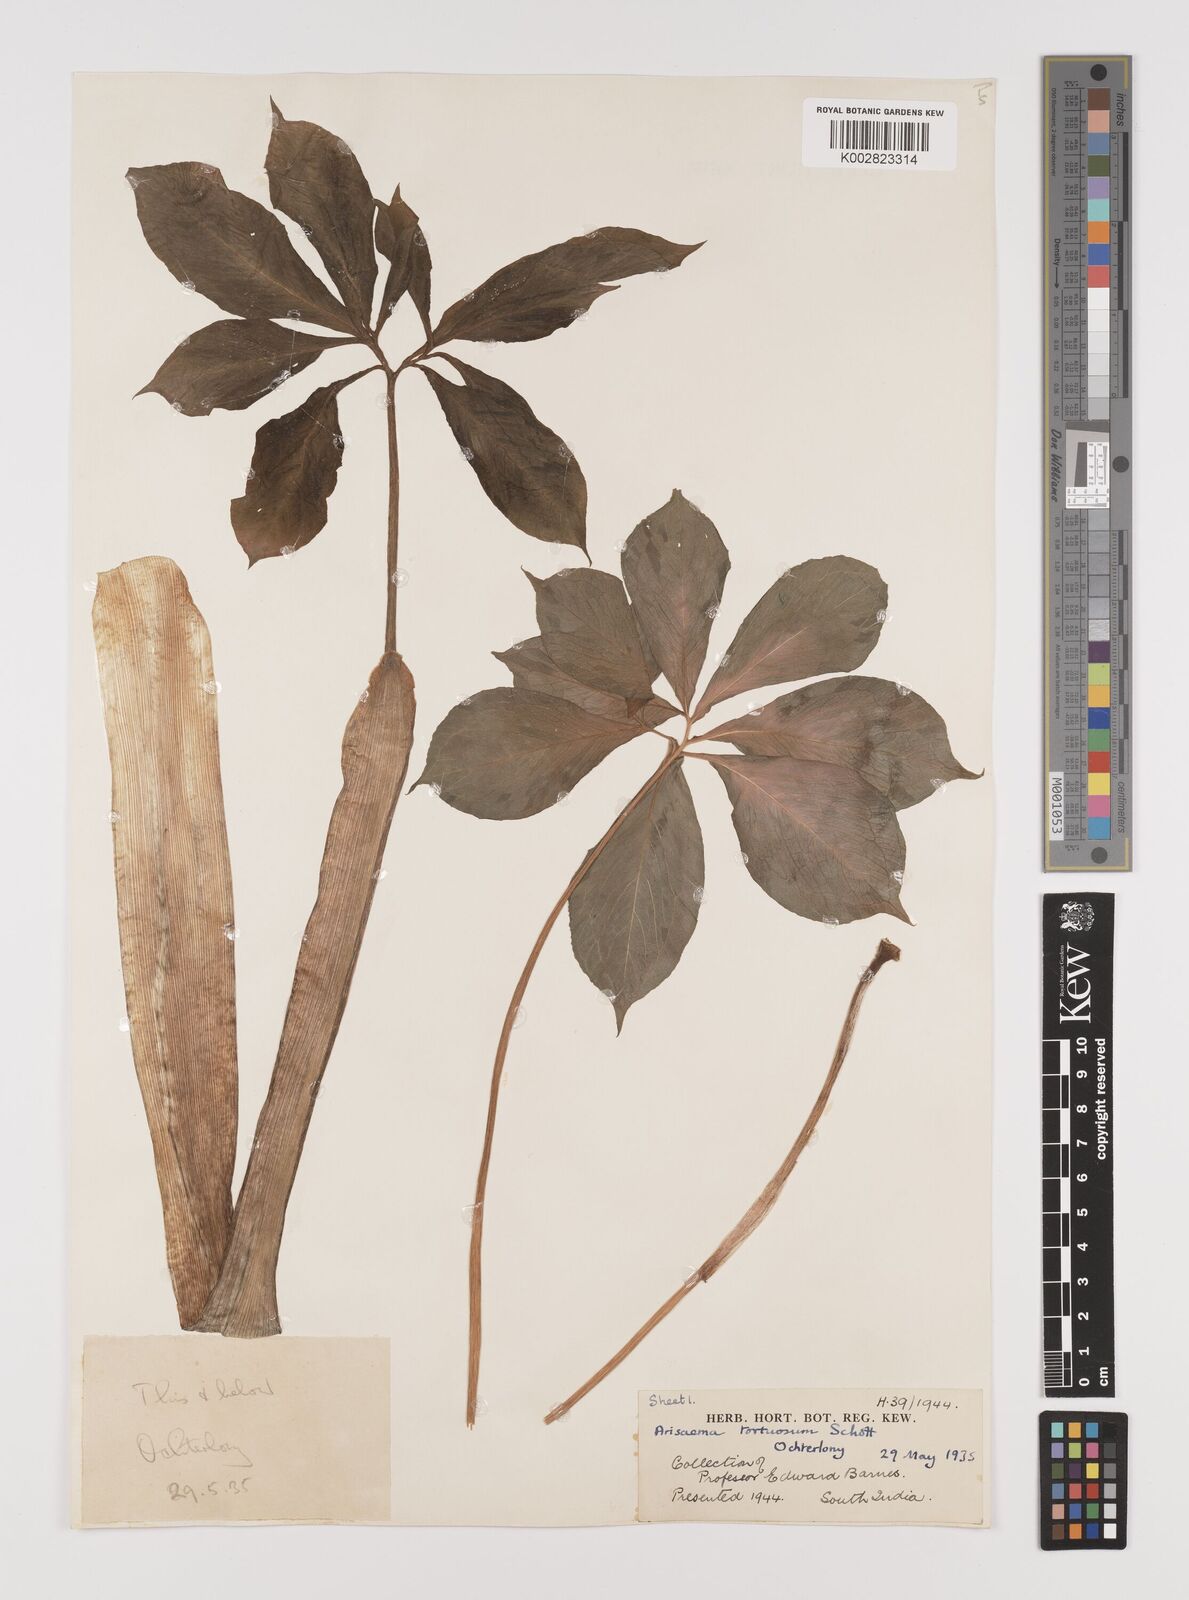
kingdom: Plantae
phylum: Tracheophyta
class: Liliopsida
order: Alismatales
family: Araceae
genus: Arisaema
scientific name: Arisaema tortuosum
